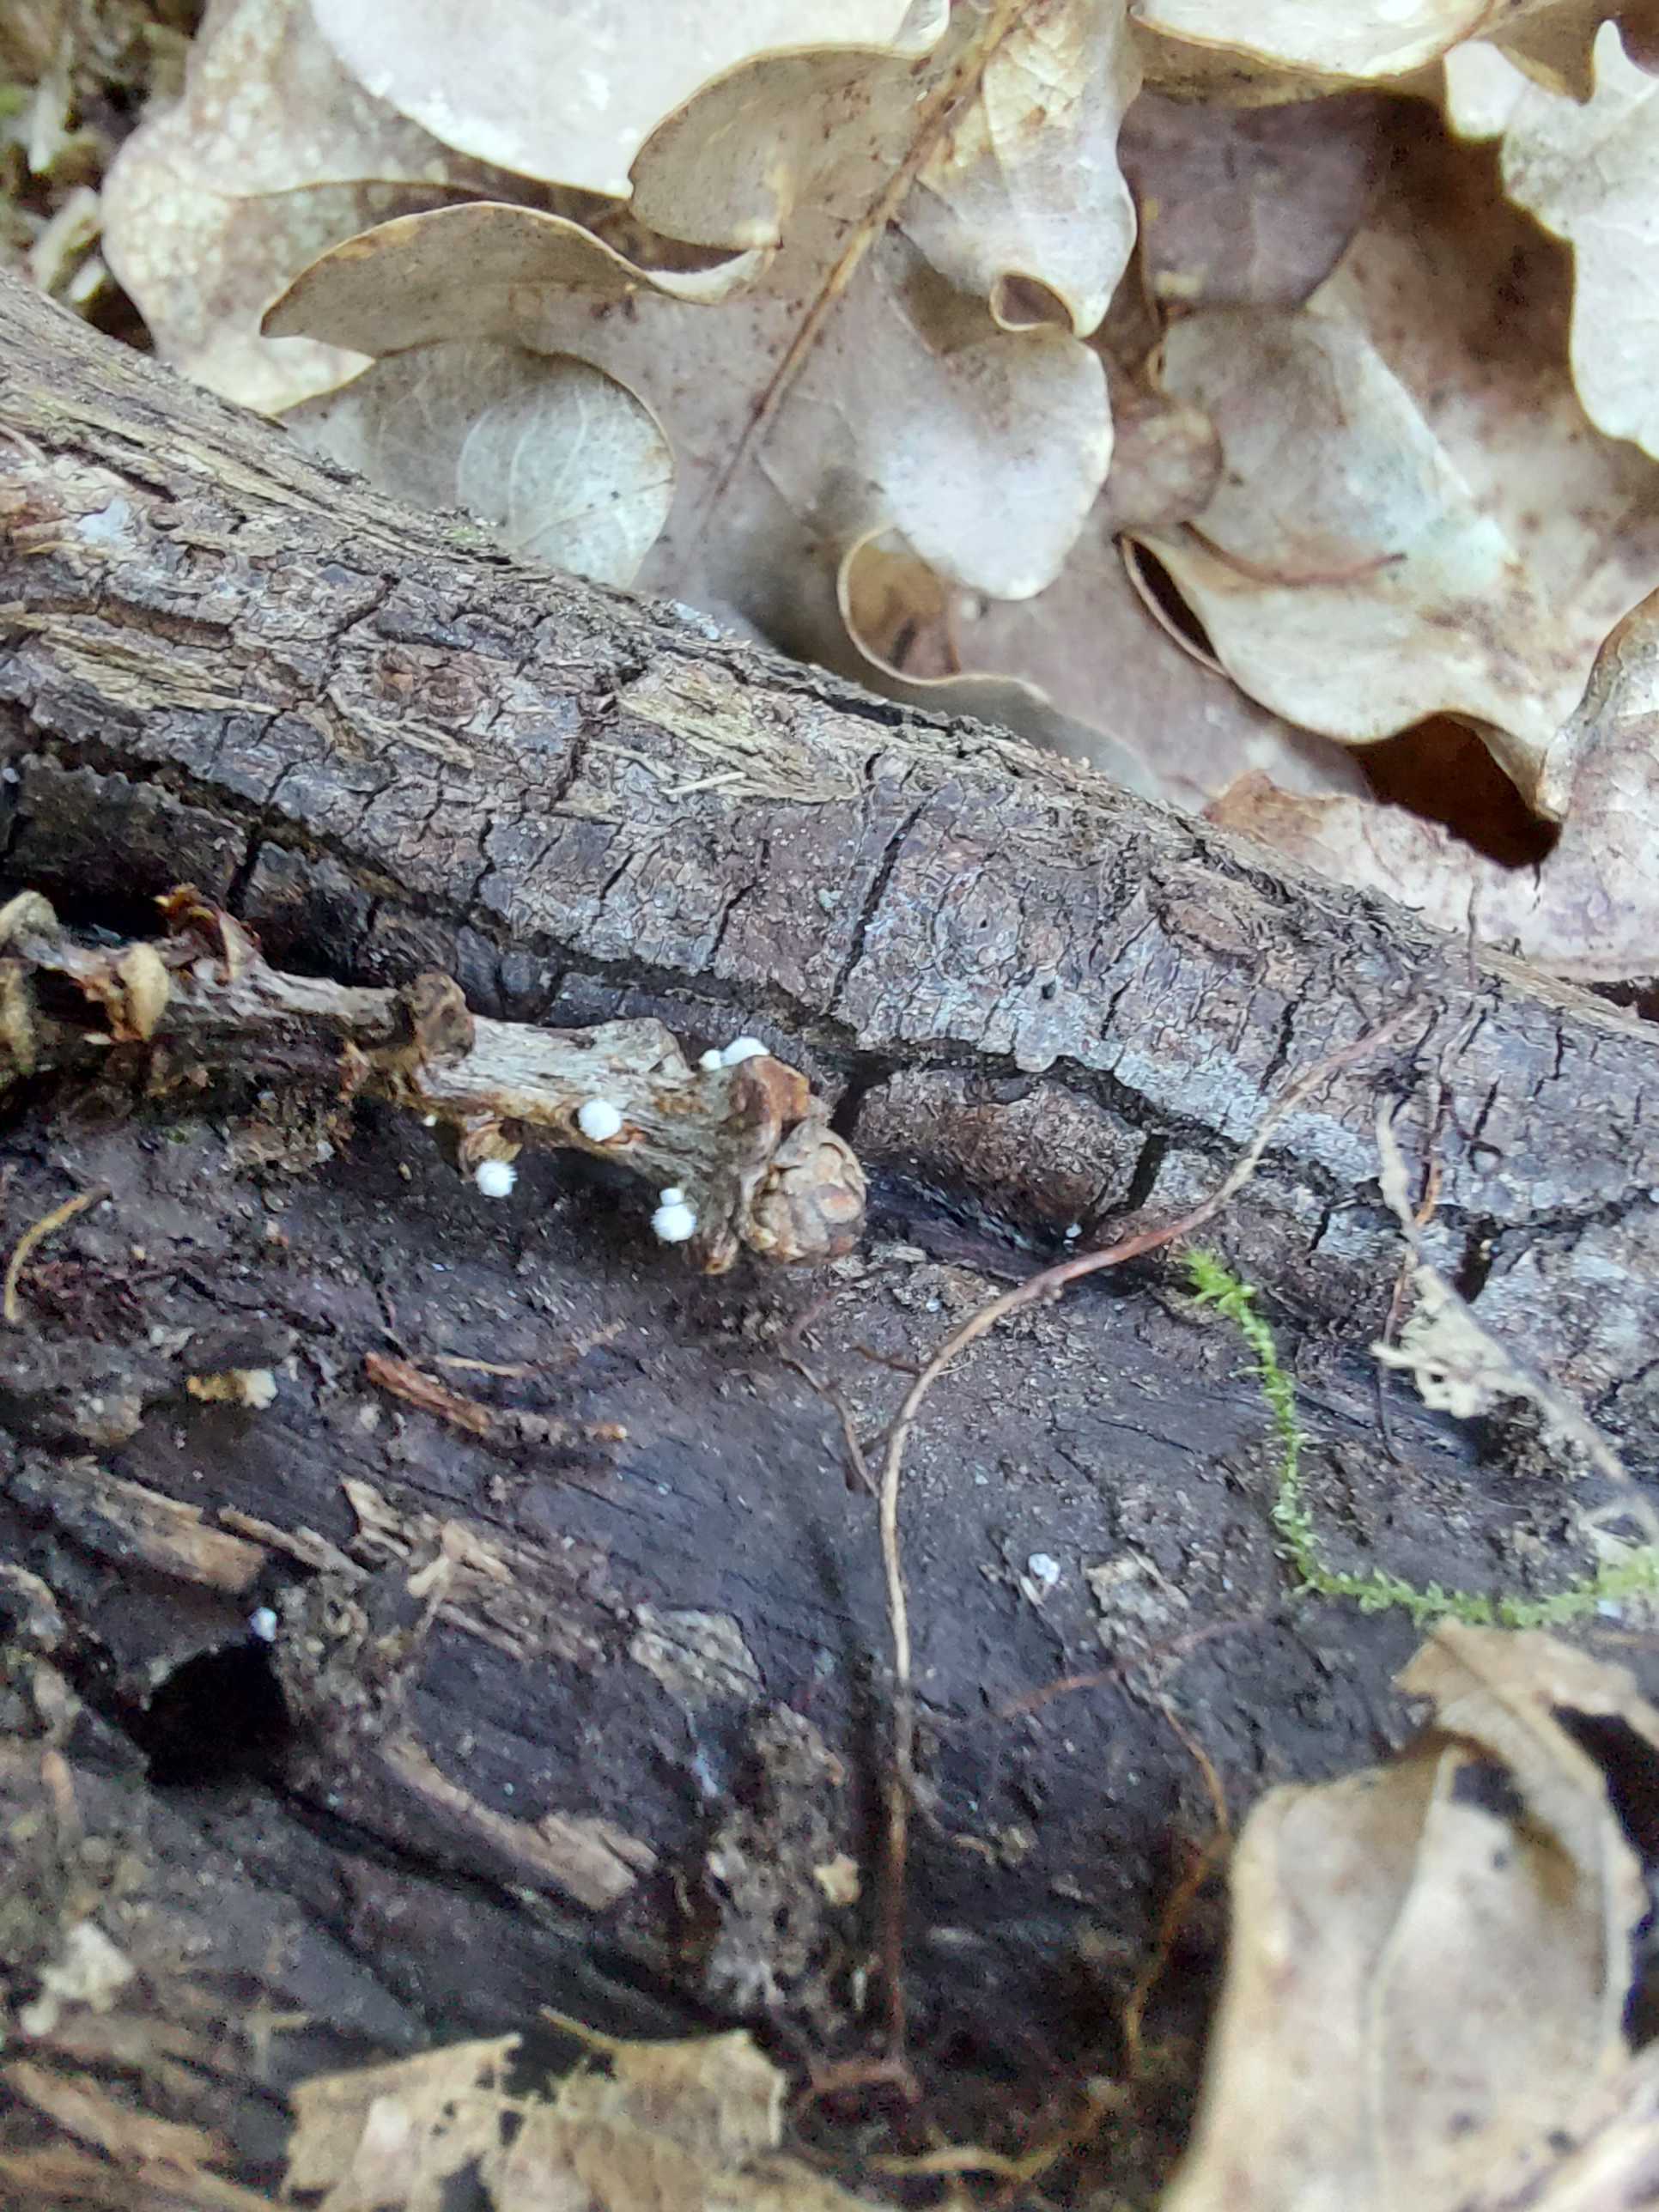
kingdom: Fungi
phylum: Ascomycota
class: Leotiomycetes
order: Helotiales
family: Lachnaceae
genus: Capitotricha
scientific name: Capitotricha bicolor
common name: prægtig frynseskive
